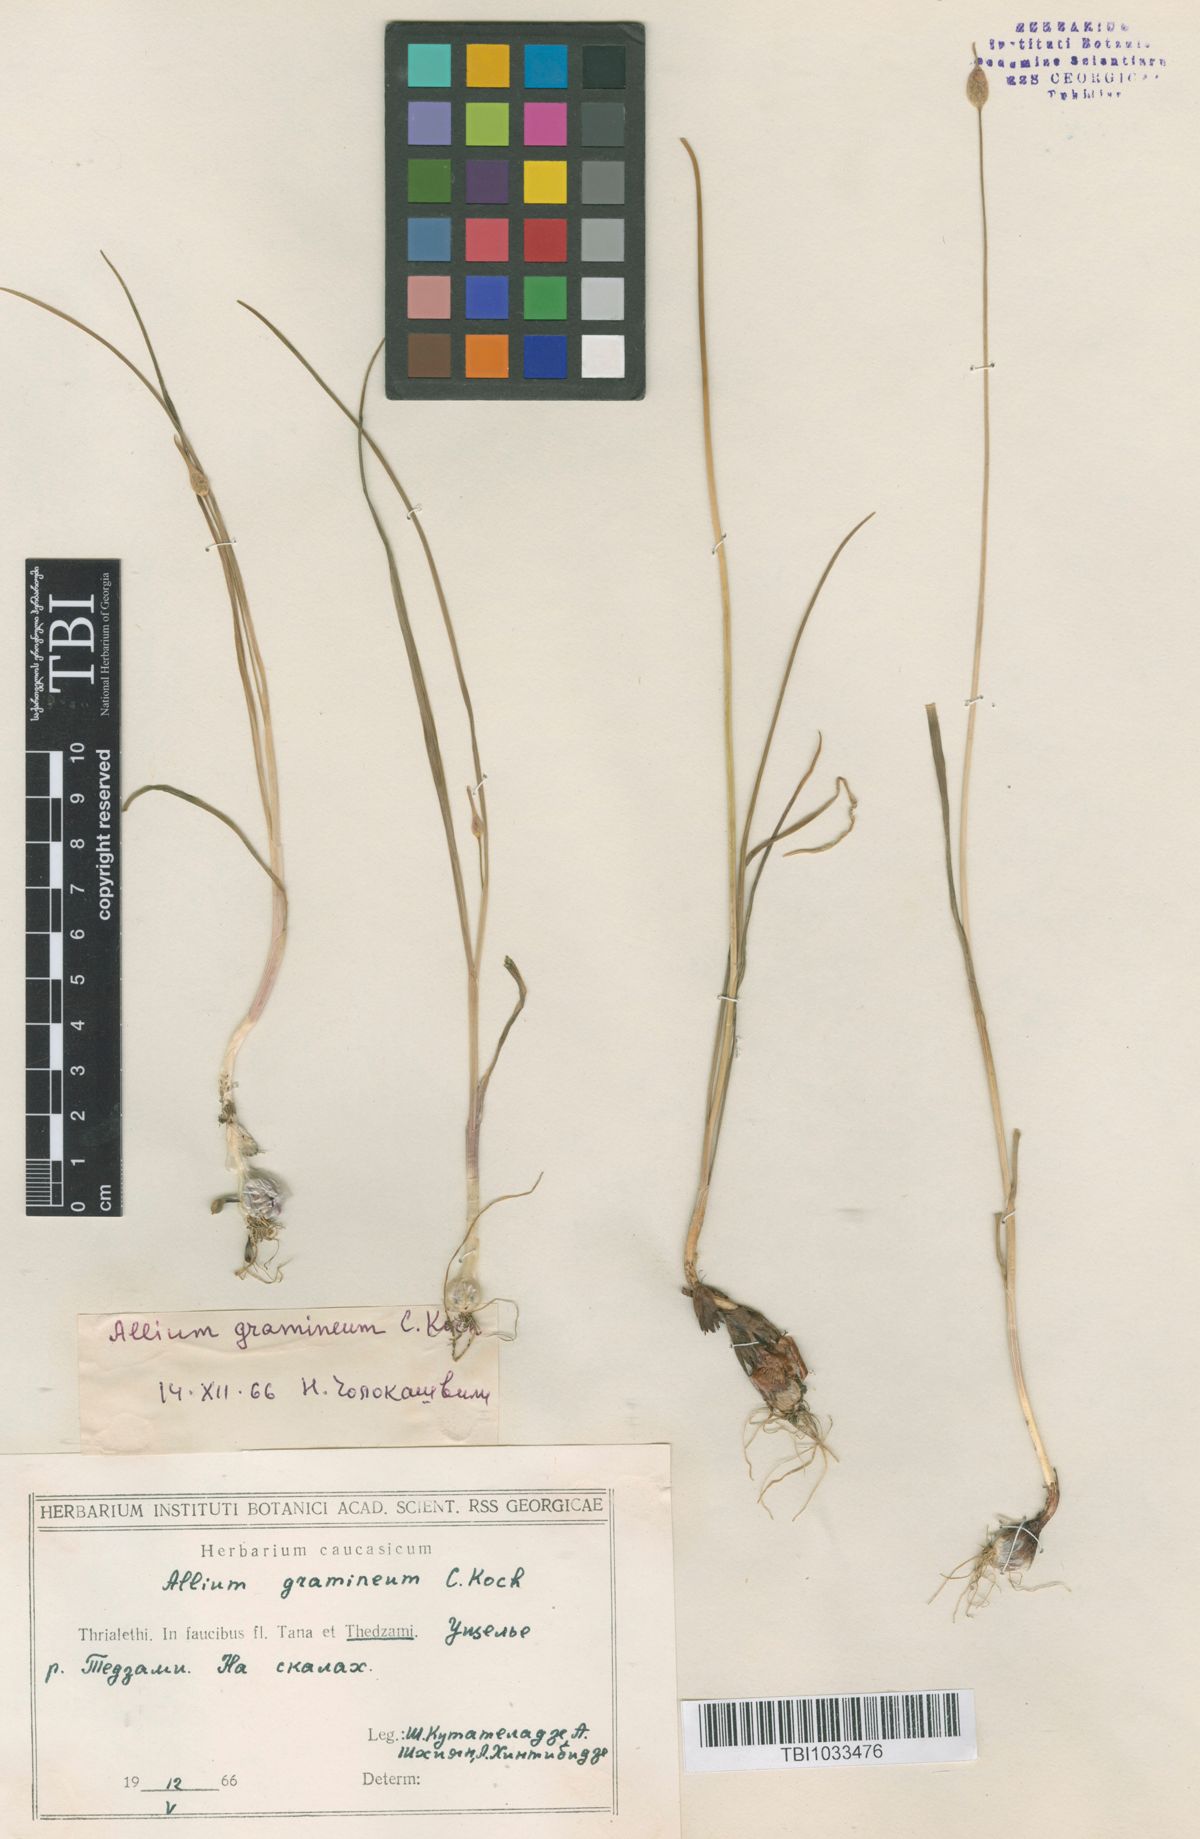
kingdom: Plantae
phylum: Tracheophyta
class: Liliopsida
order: Asparagales
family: Amaryllidaceae
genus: Allium
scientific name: Allium gramineum
